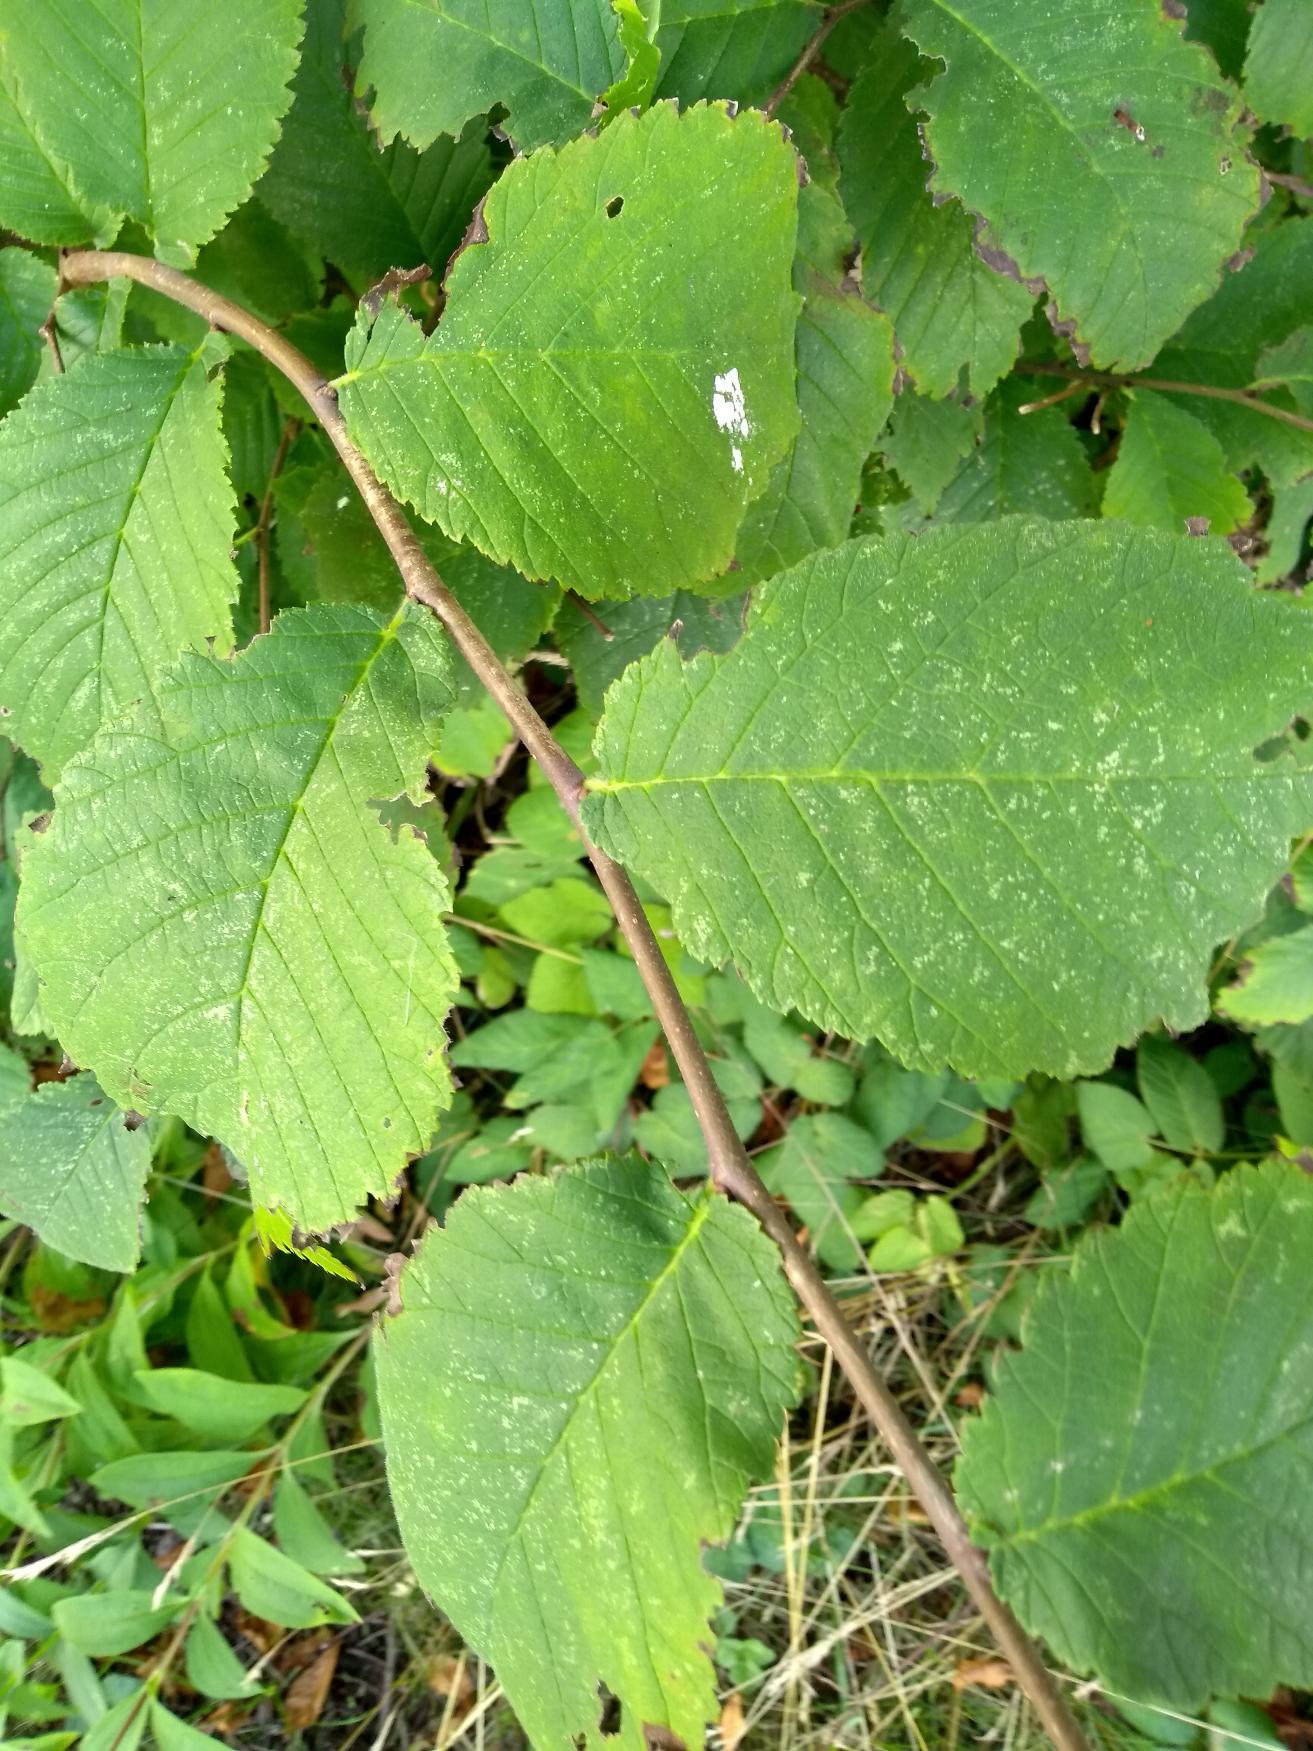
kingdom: Plantae
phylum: Tracheophyta
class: Magnoliopsida
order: Rosales
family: Ulmaceae
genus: Ulmus
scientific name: Ulmus glabra
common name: Skov-elm/storbladet elm
